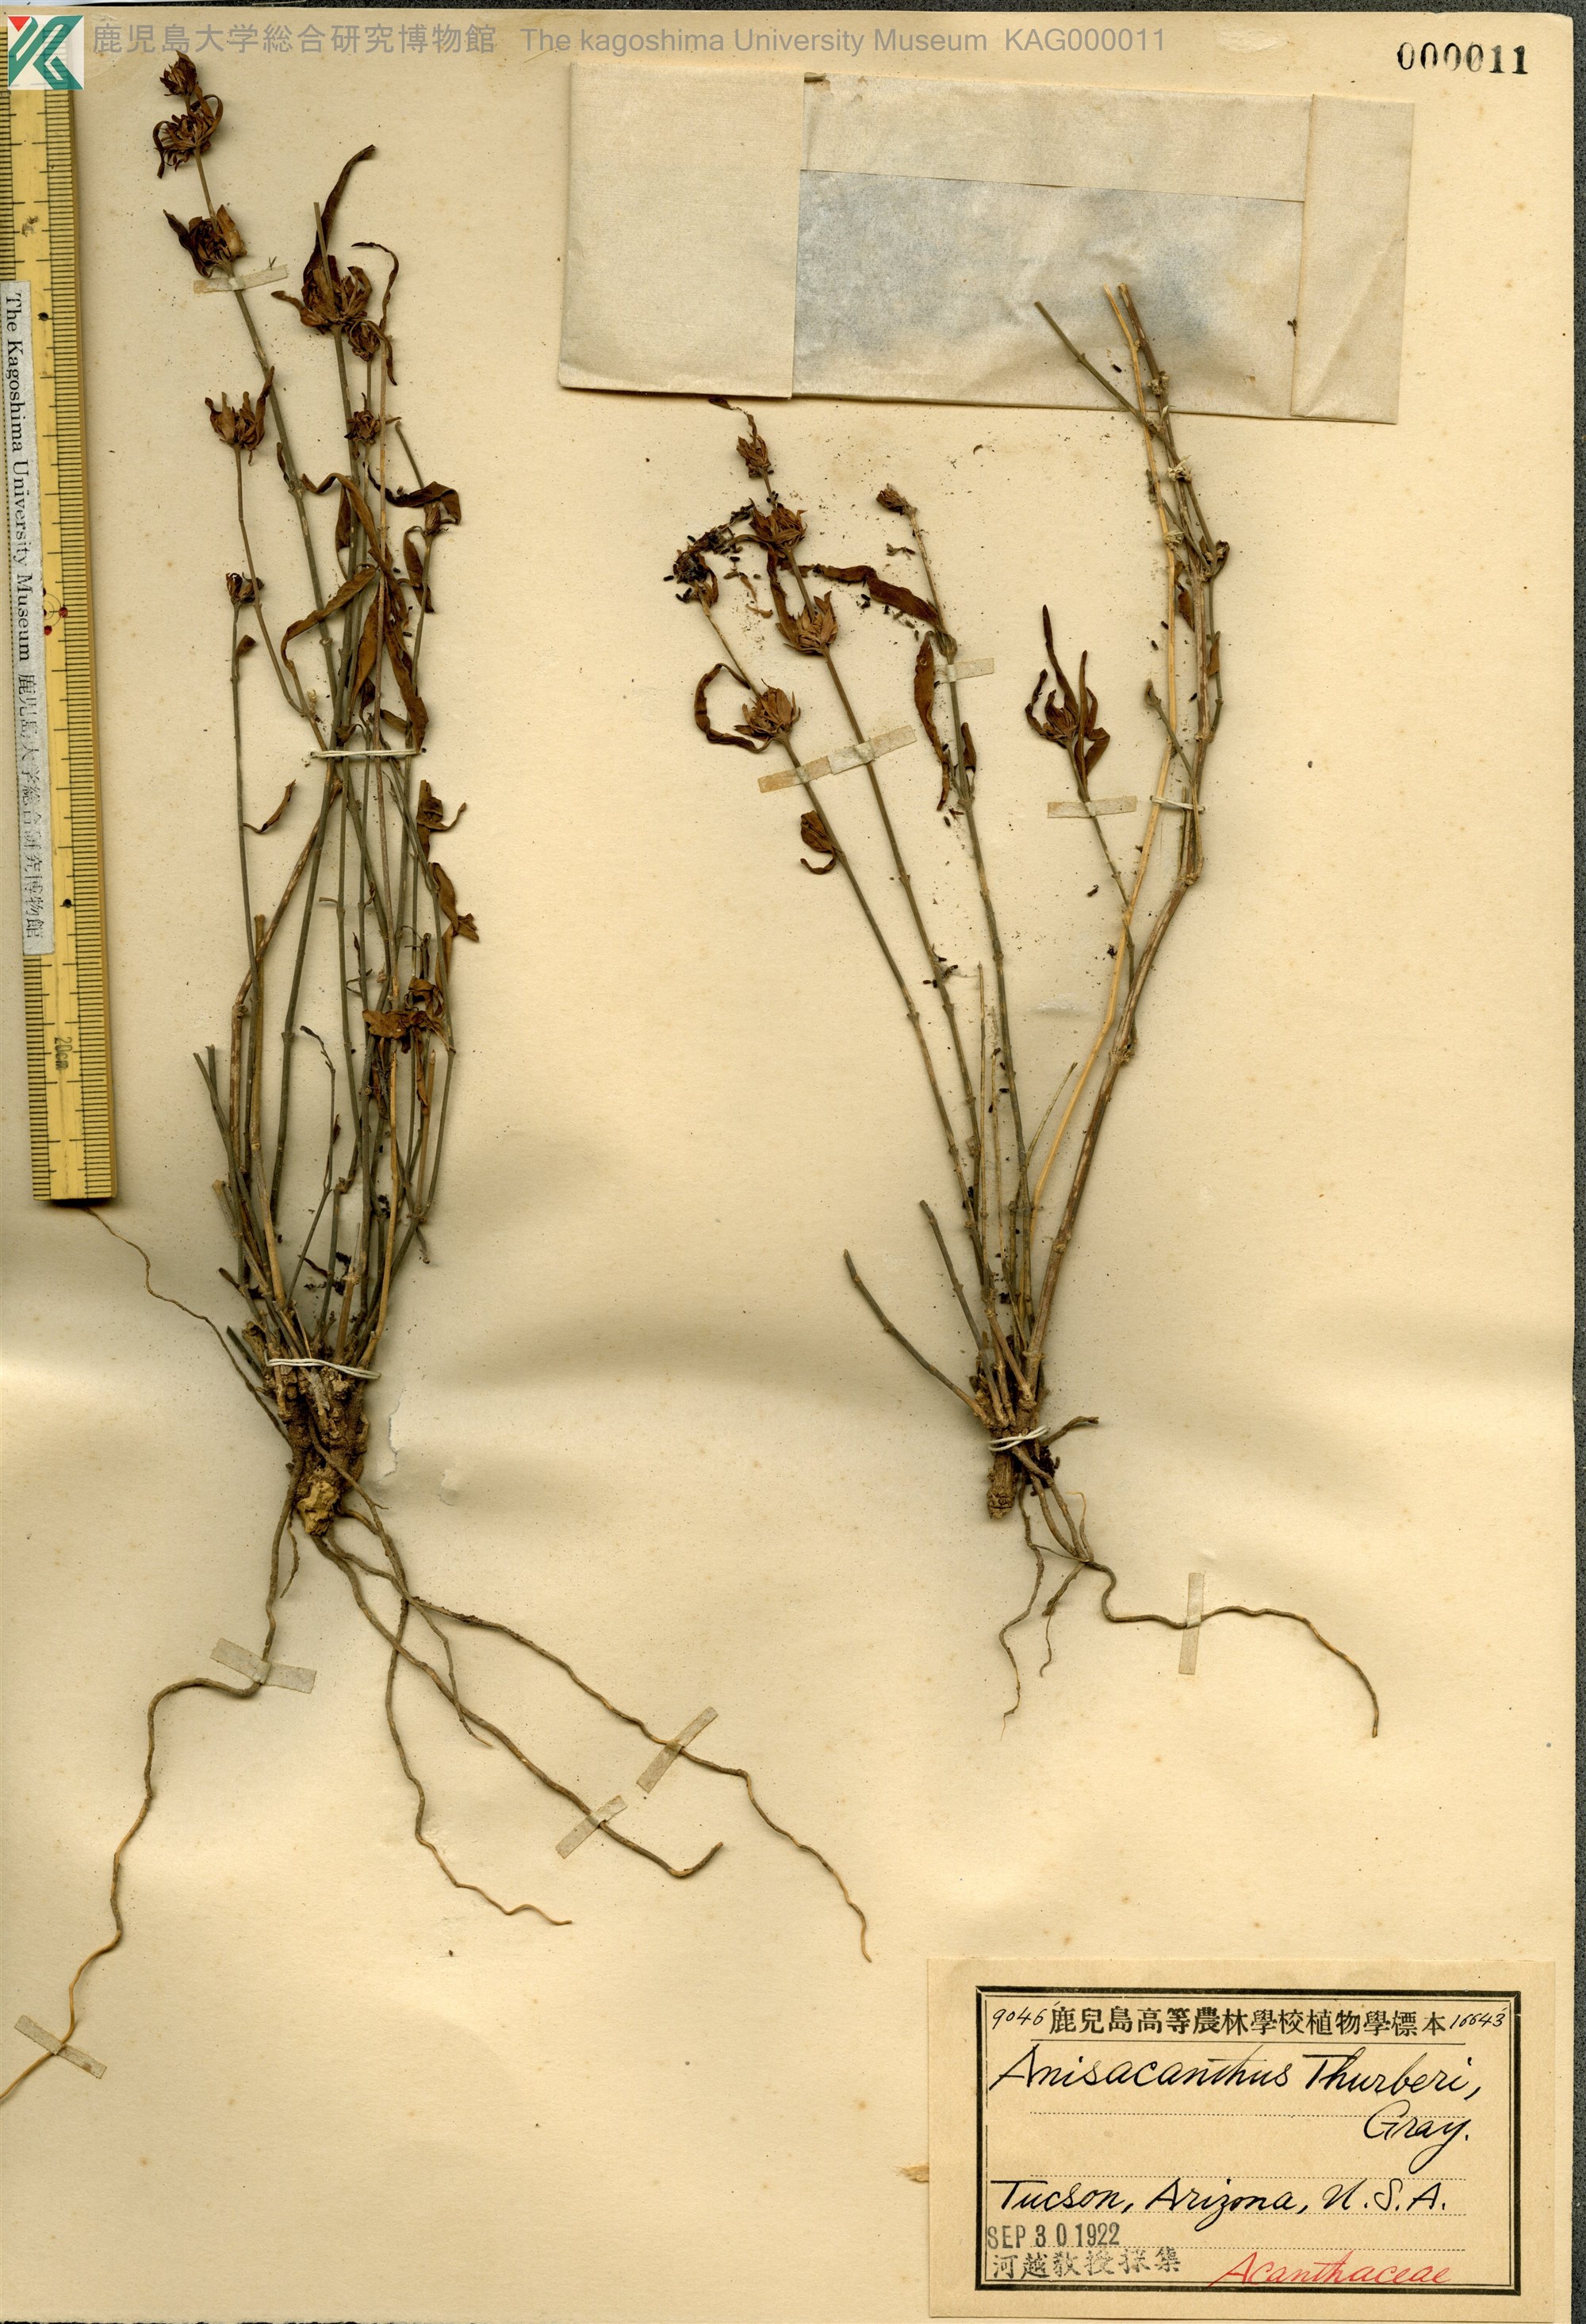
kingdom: Plantae
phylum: Tracheophyta
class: Magnoliopsida
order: Lamiales
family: Acanthaceae
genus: Anisacanthus
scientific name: Anisacanthus thurberi
